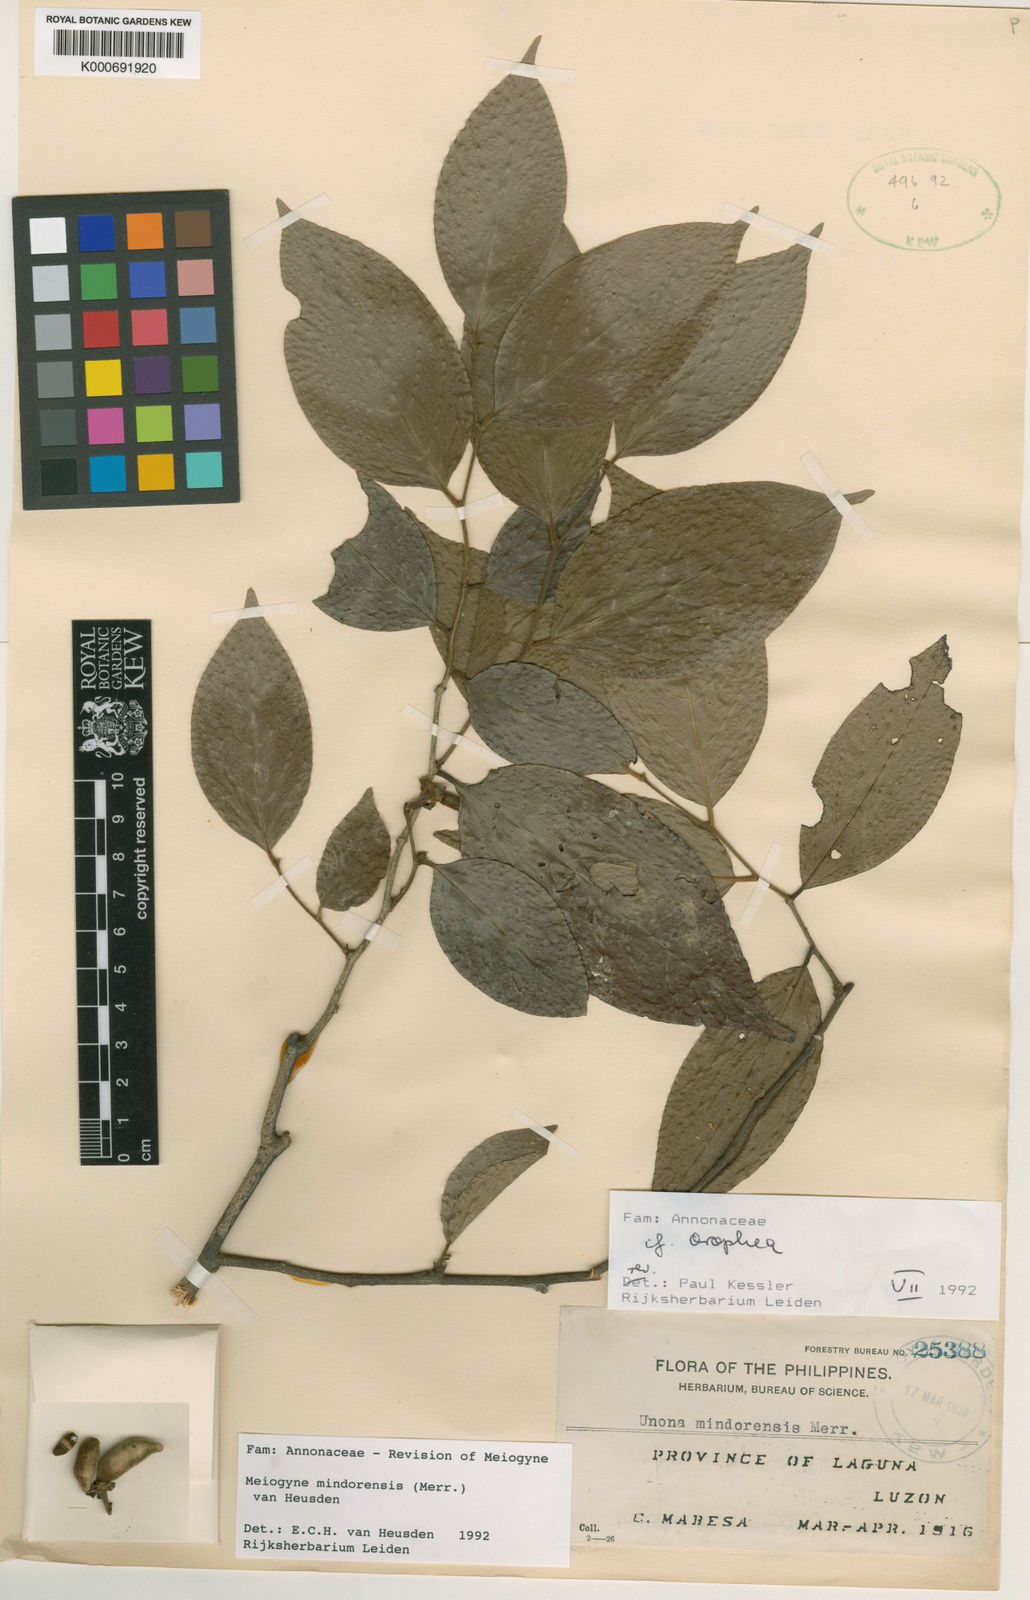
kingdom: Plantae
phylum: Tracheophyta
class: Magnoliopsida
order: Magnoliales
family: Annonaceae
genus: Oncodostigma
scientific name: Oncodostigma
